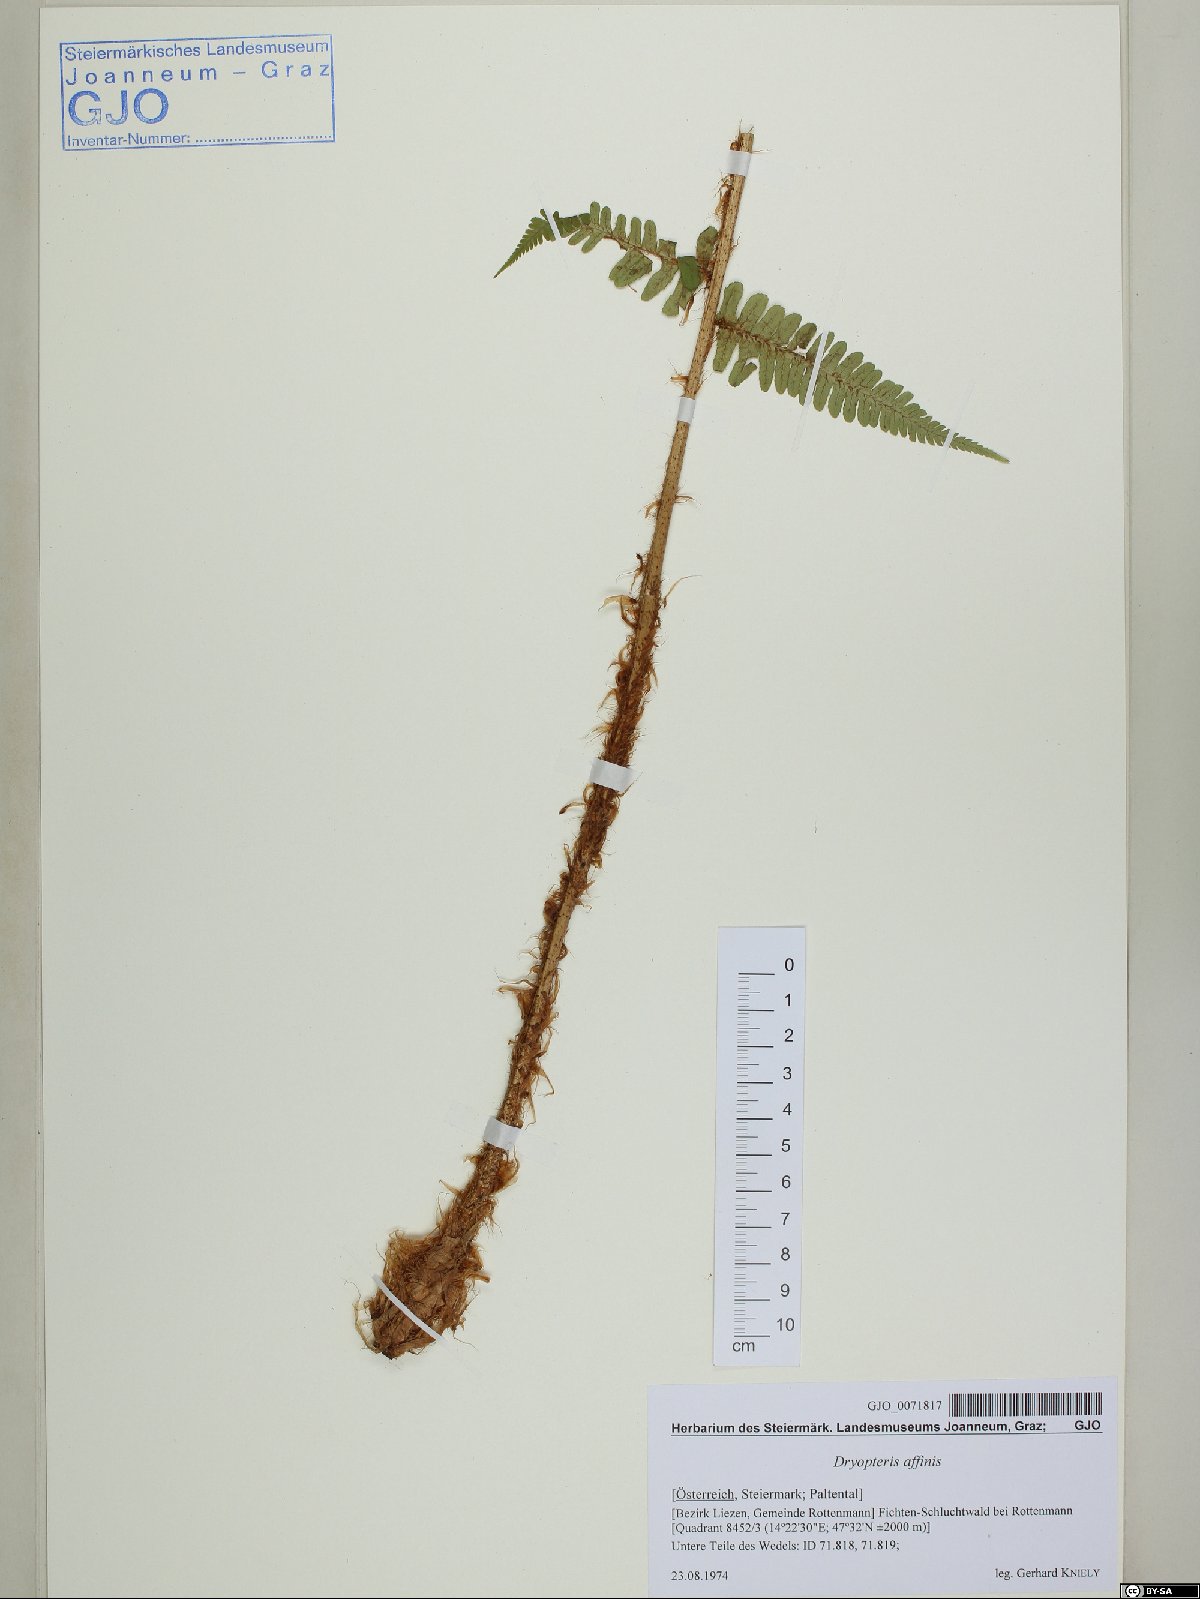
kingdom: Plantae
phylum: Tracheophyta
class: Polypodiopsida
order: Polypodiales
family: Dryopteridaceae
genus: Dryopteris
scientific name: Dryopteris affinis
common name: Scaly male fern
